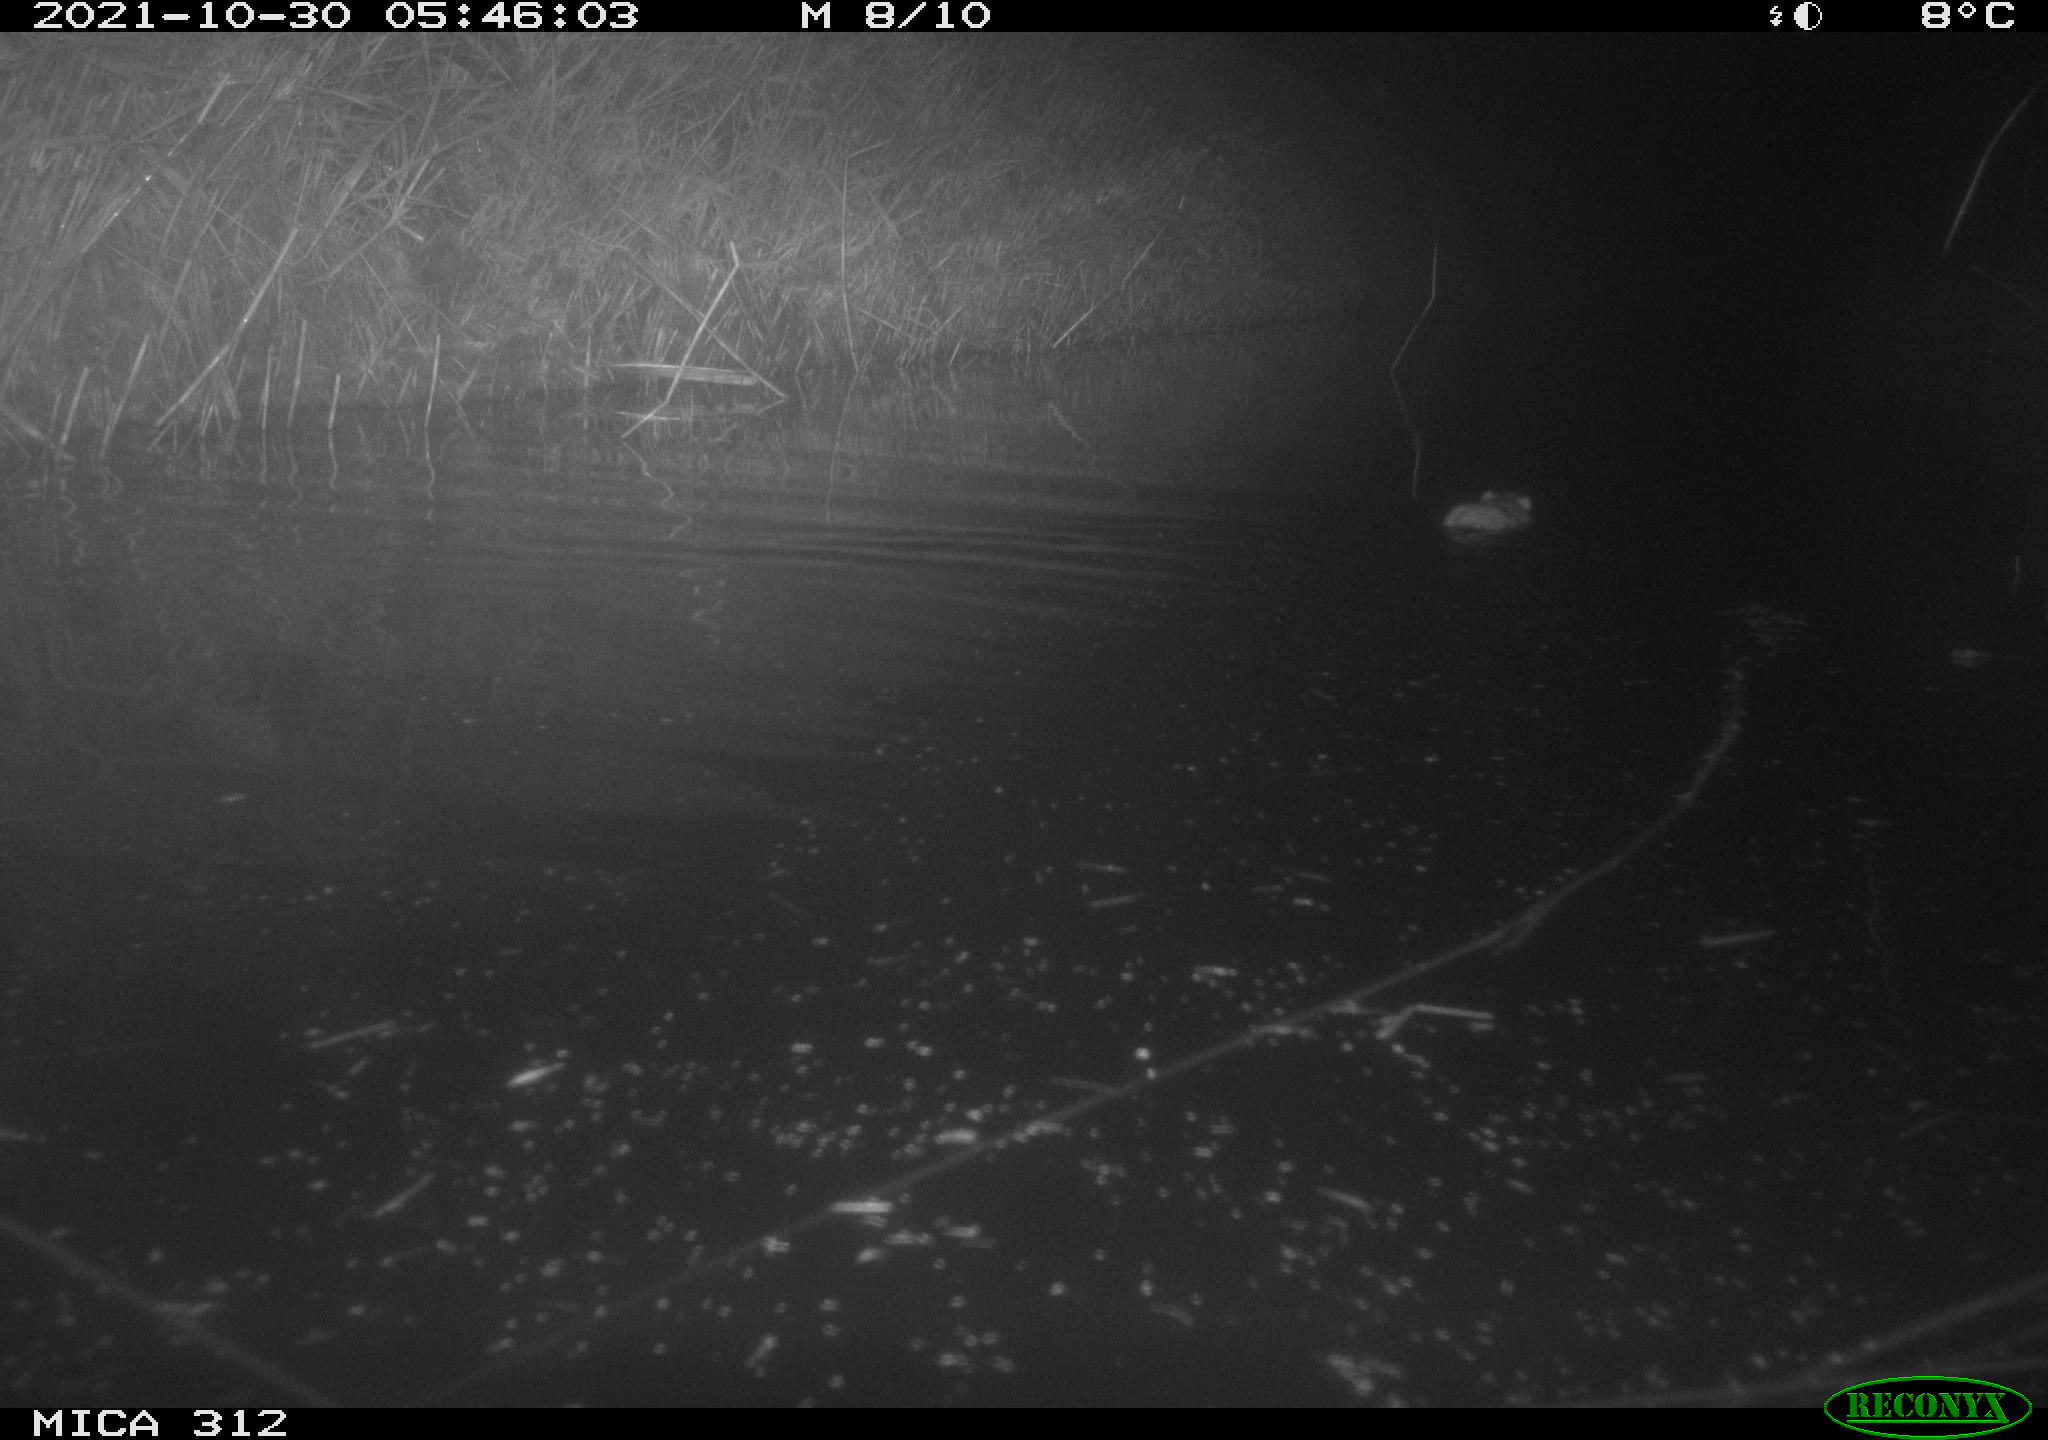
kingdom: Animalia
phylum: Chordata
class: Mammalia
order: Rodentia
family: Muridae
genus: Rattus
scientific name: Rattus norvegicus
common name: Brown rat
